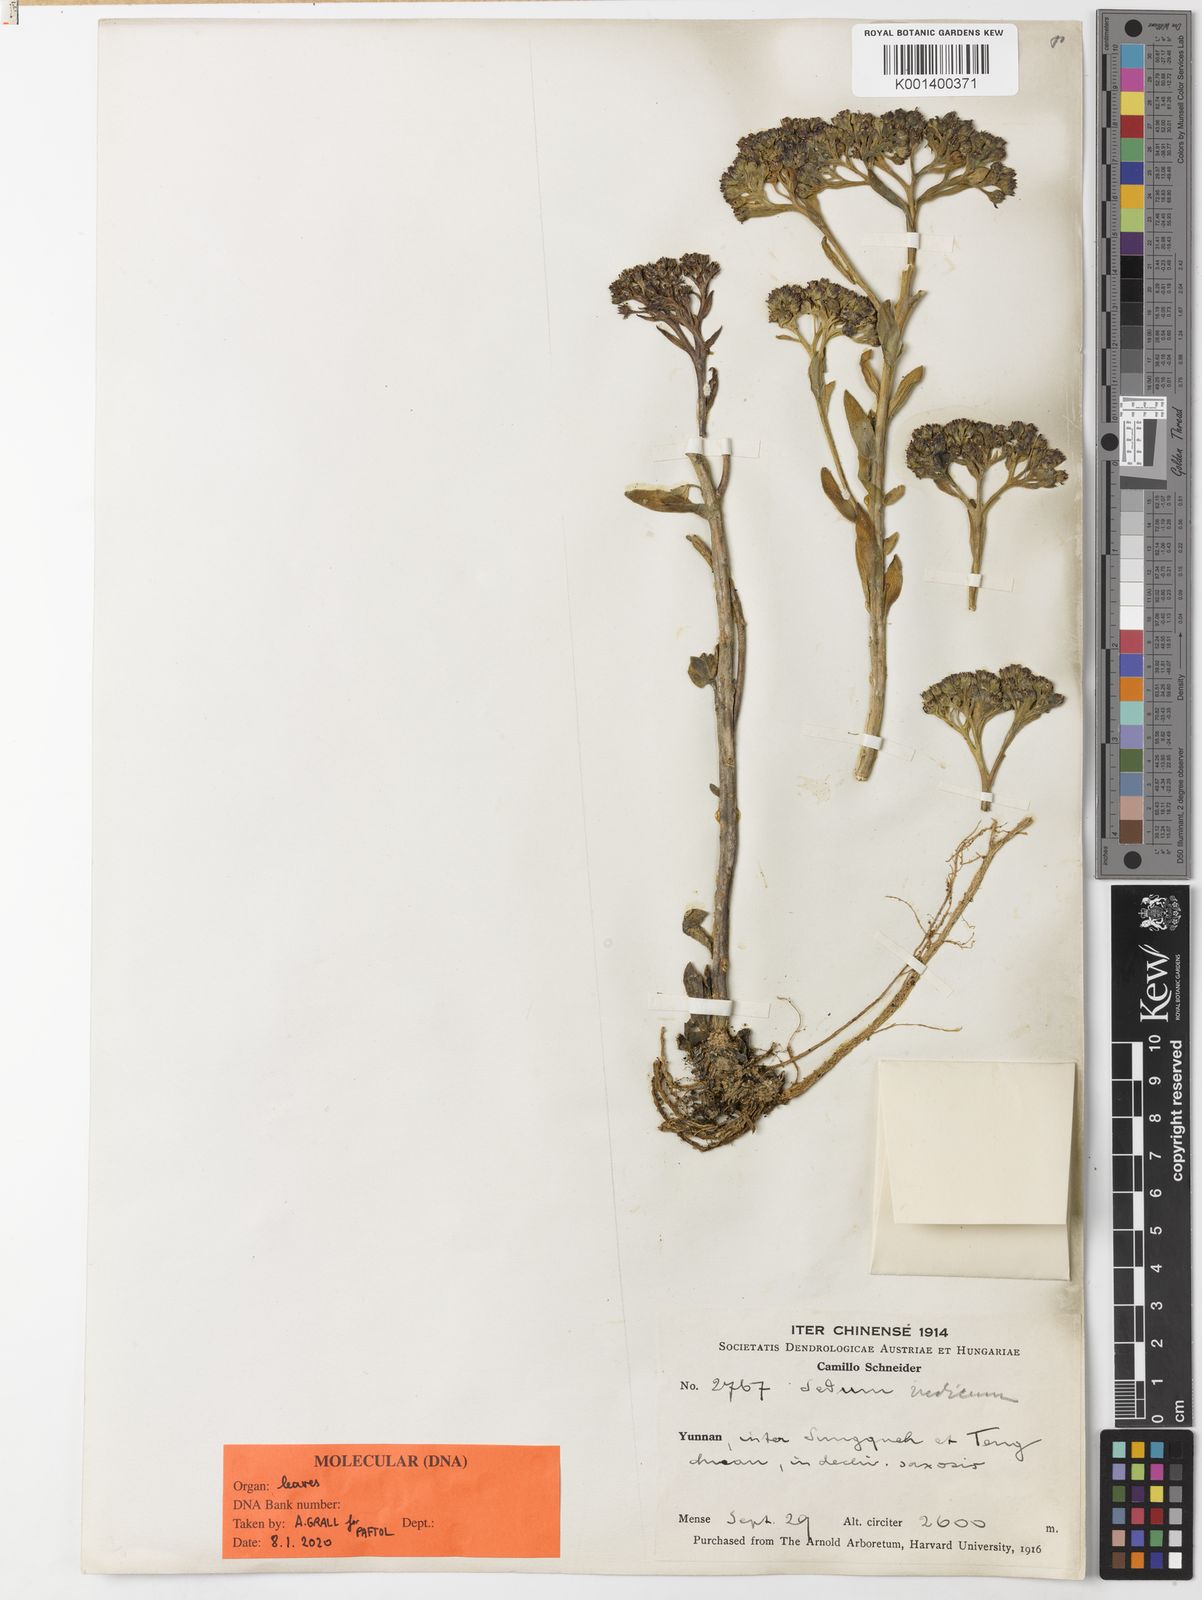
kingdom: Plantae
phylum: Tracheophyta
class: Magnoliopsida
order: Saxifragales
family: Crassulaceae
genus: Sinocrassula
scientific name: Sinocrassula indica
